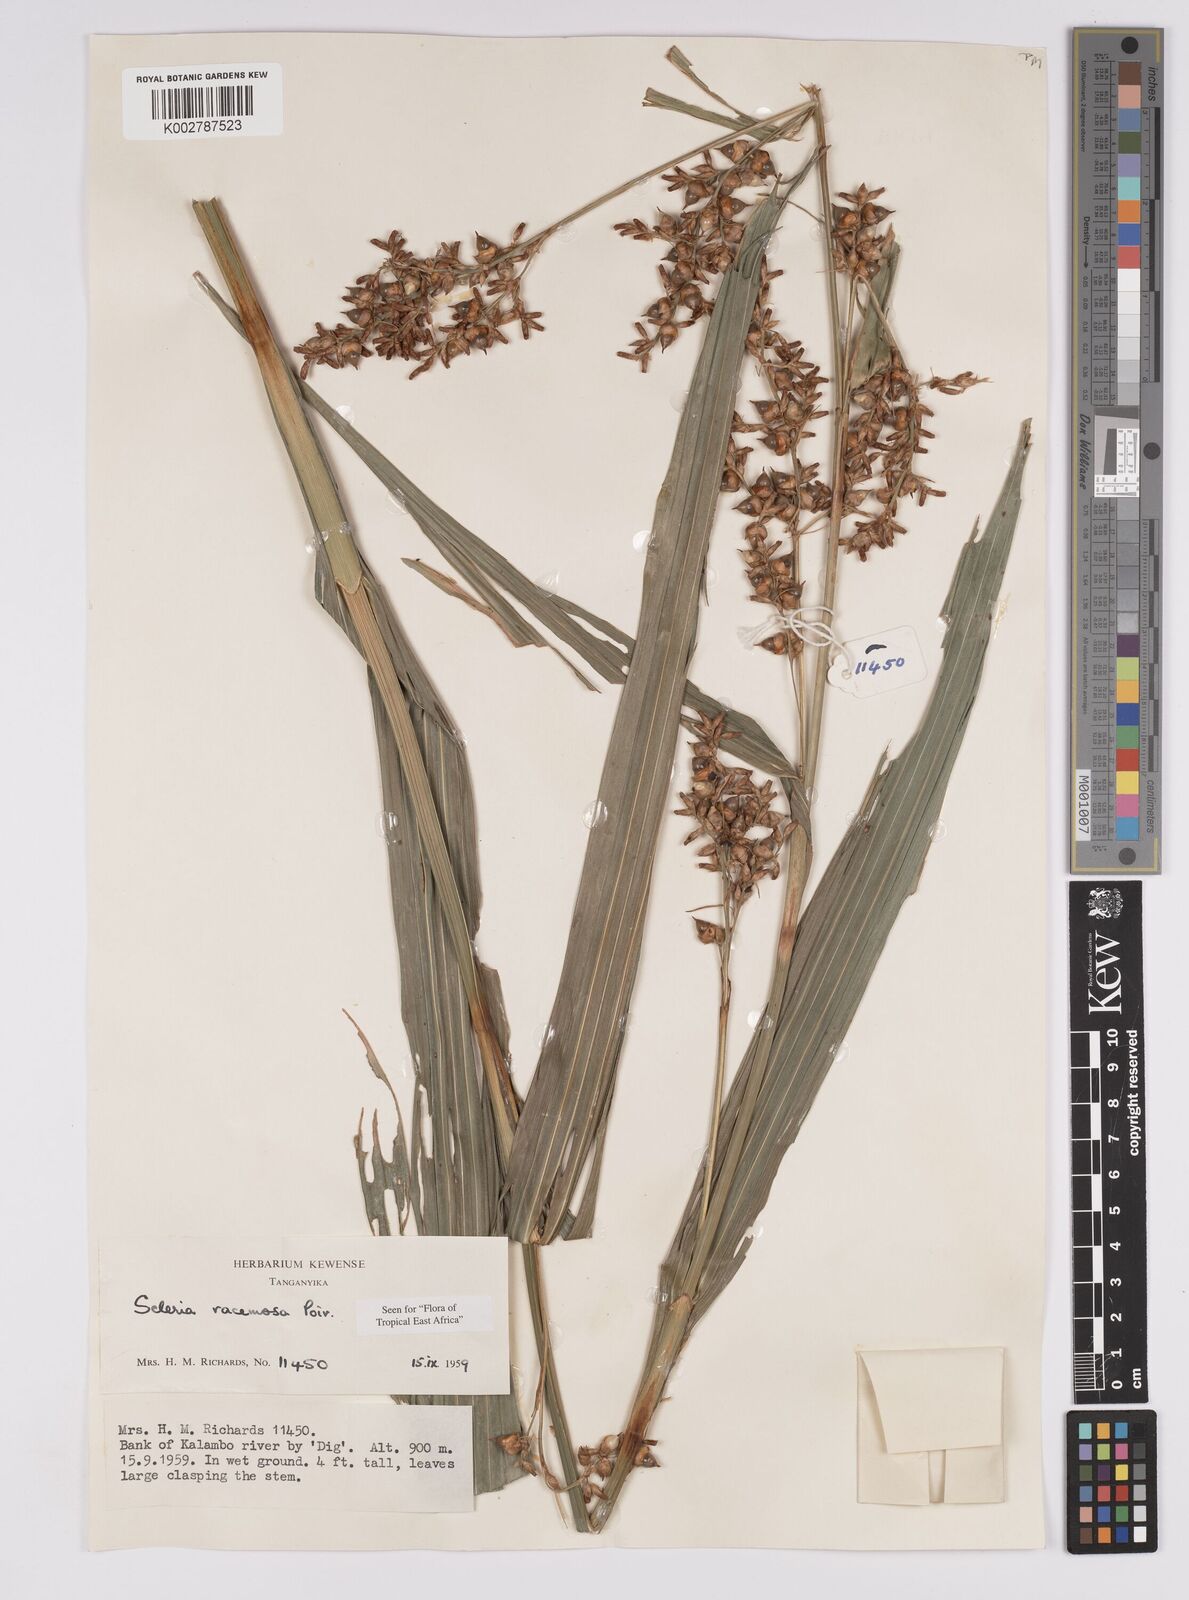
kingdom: Plantae
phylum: Tracheophyta
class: Liliopsida
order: Poales
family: Cyperaceae
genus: Scleria
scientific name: Scleria racemosa
